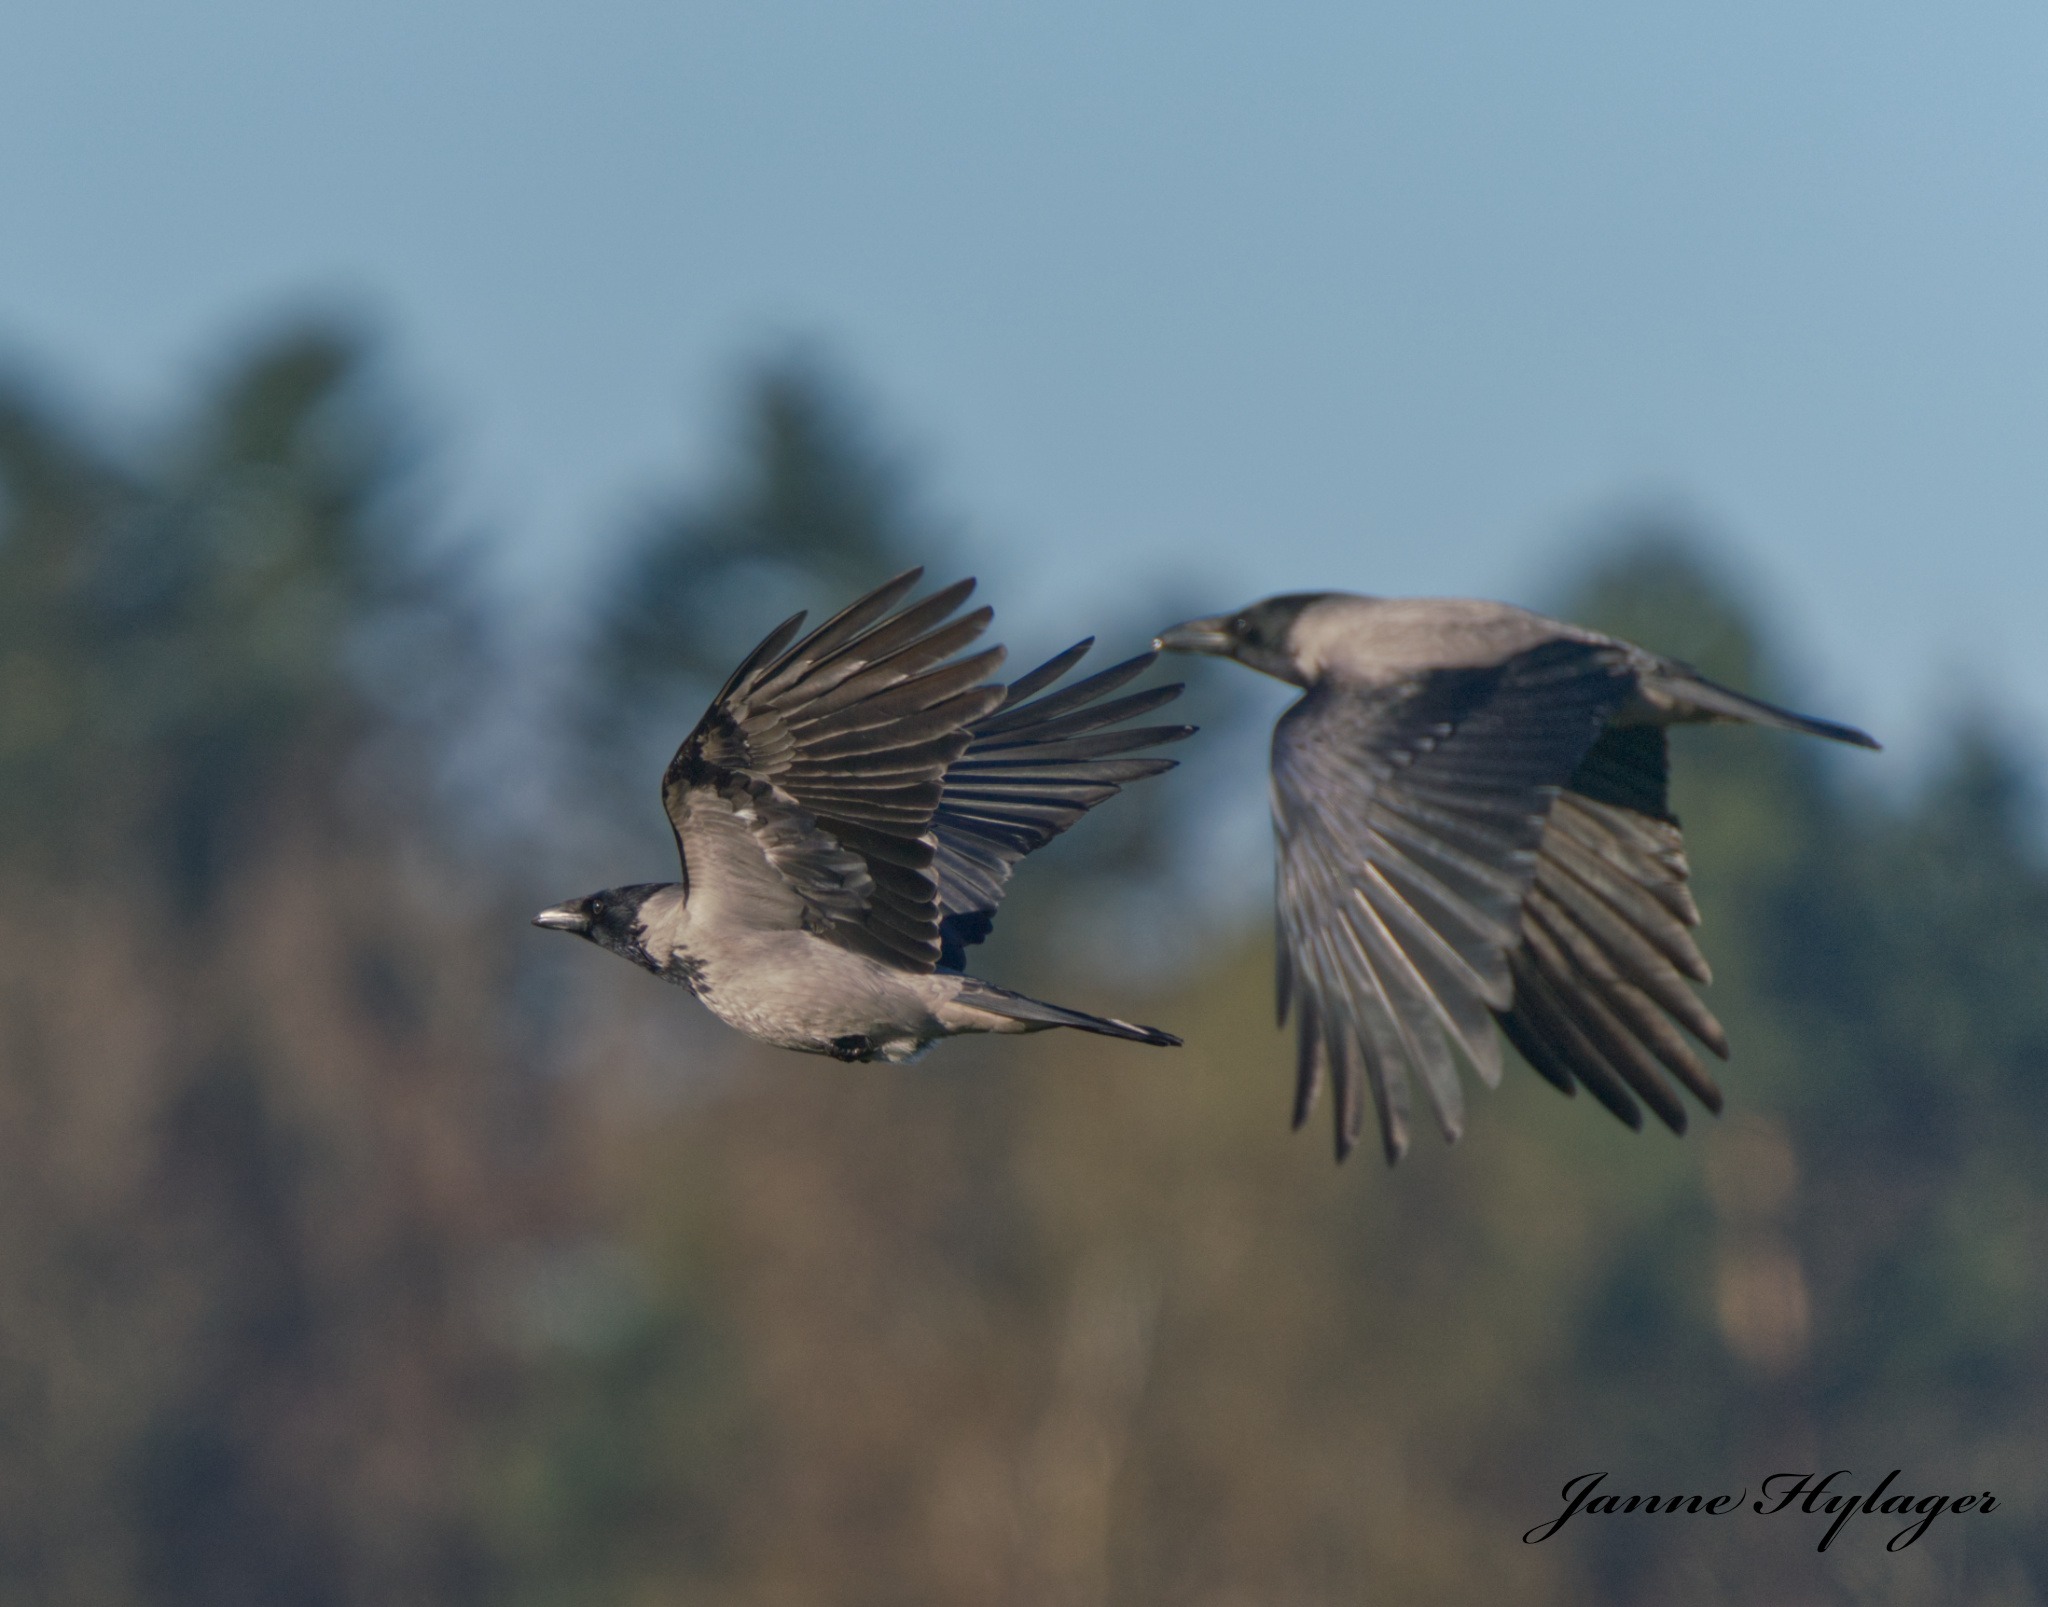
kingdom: Animalia
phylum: Chordata
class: Aves
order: Passeriformes
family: Corvidae
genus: Corvus
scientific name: Corvus cornix
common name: Gråkrage
